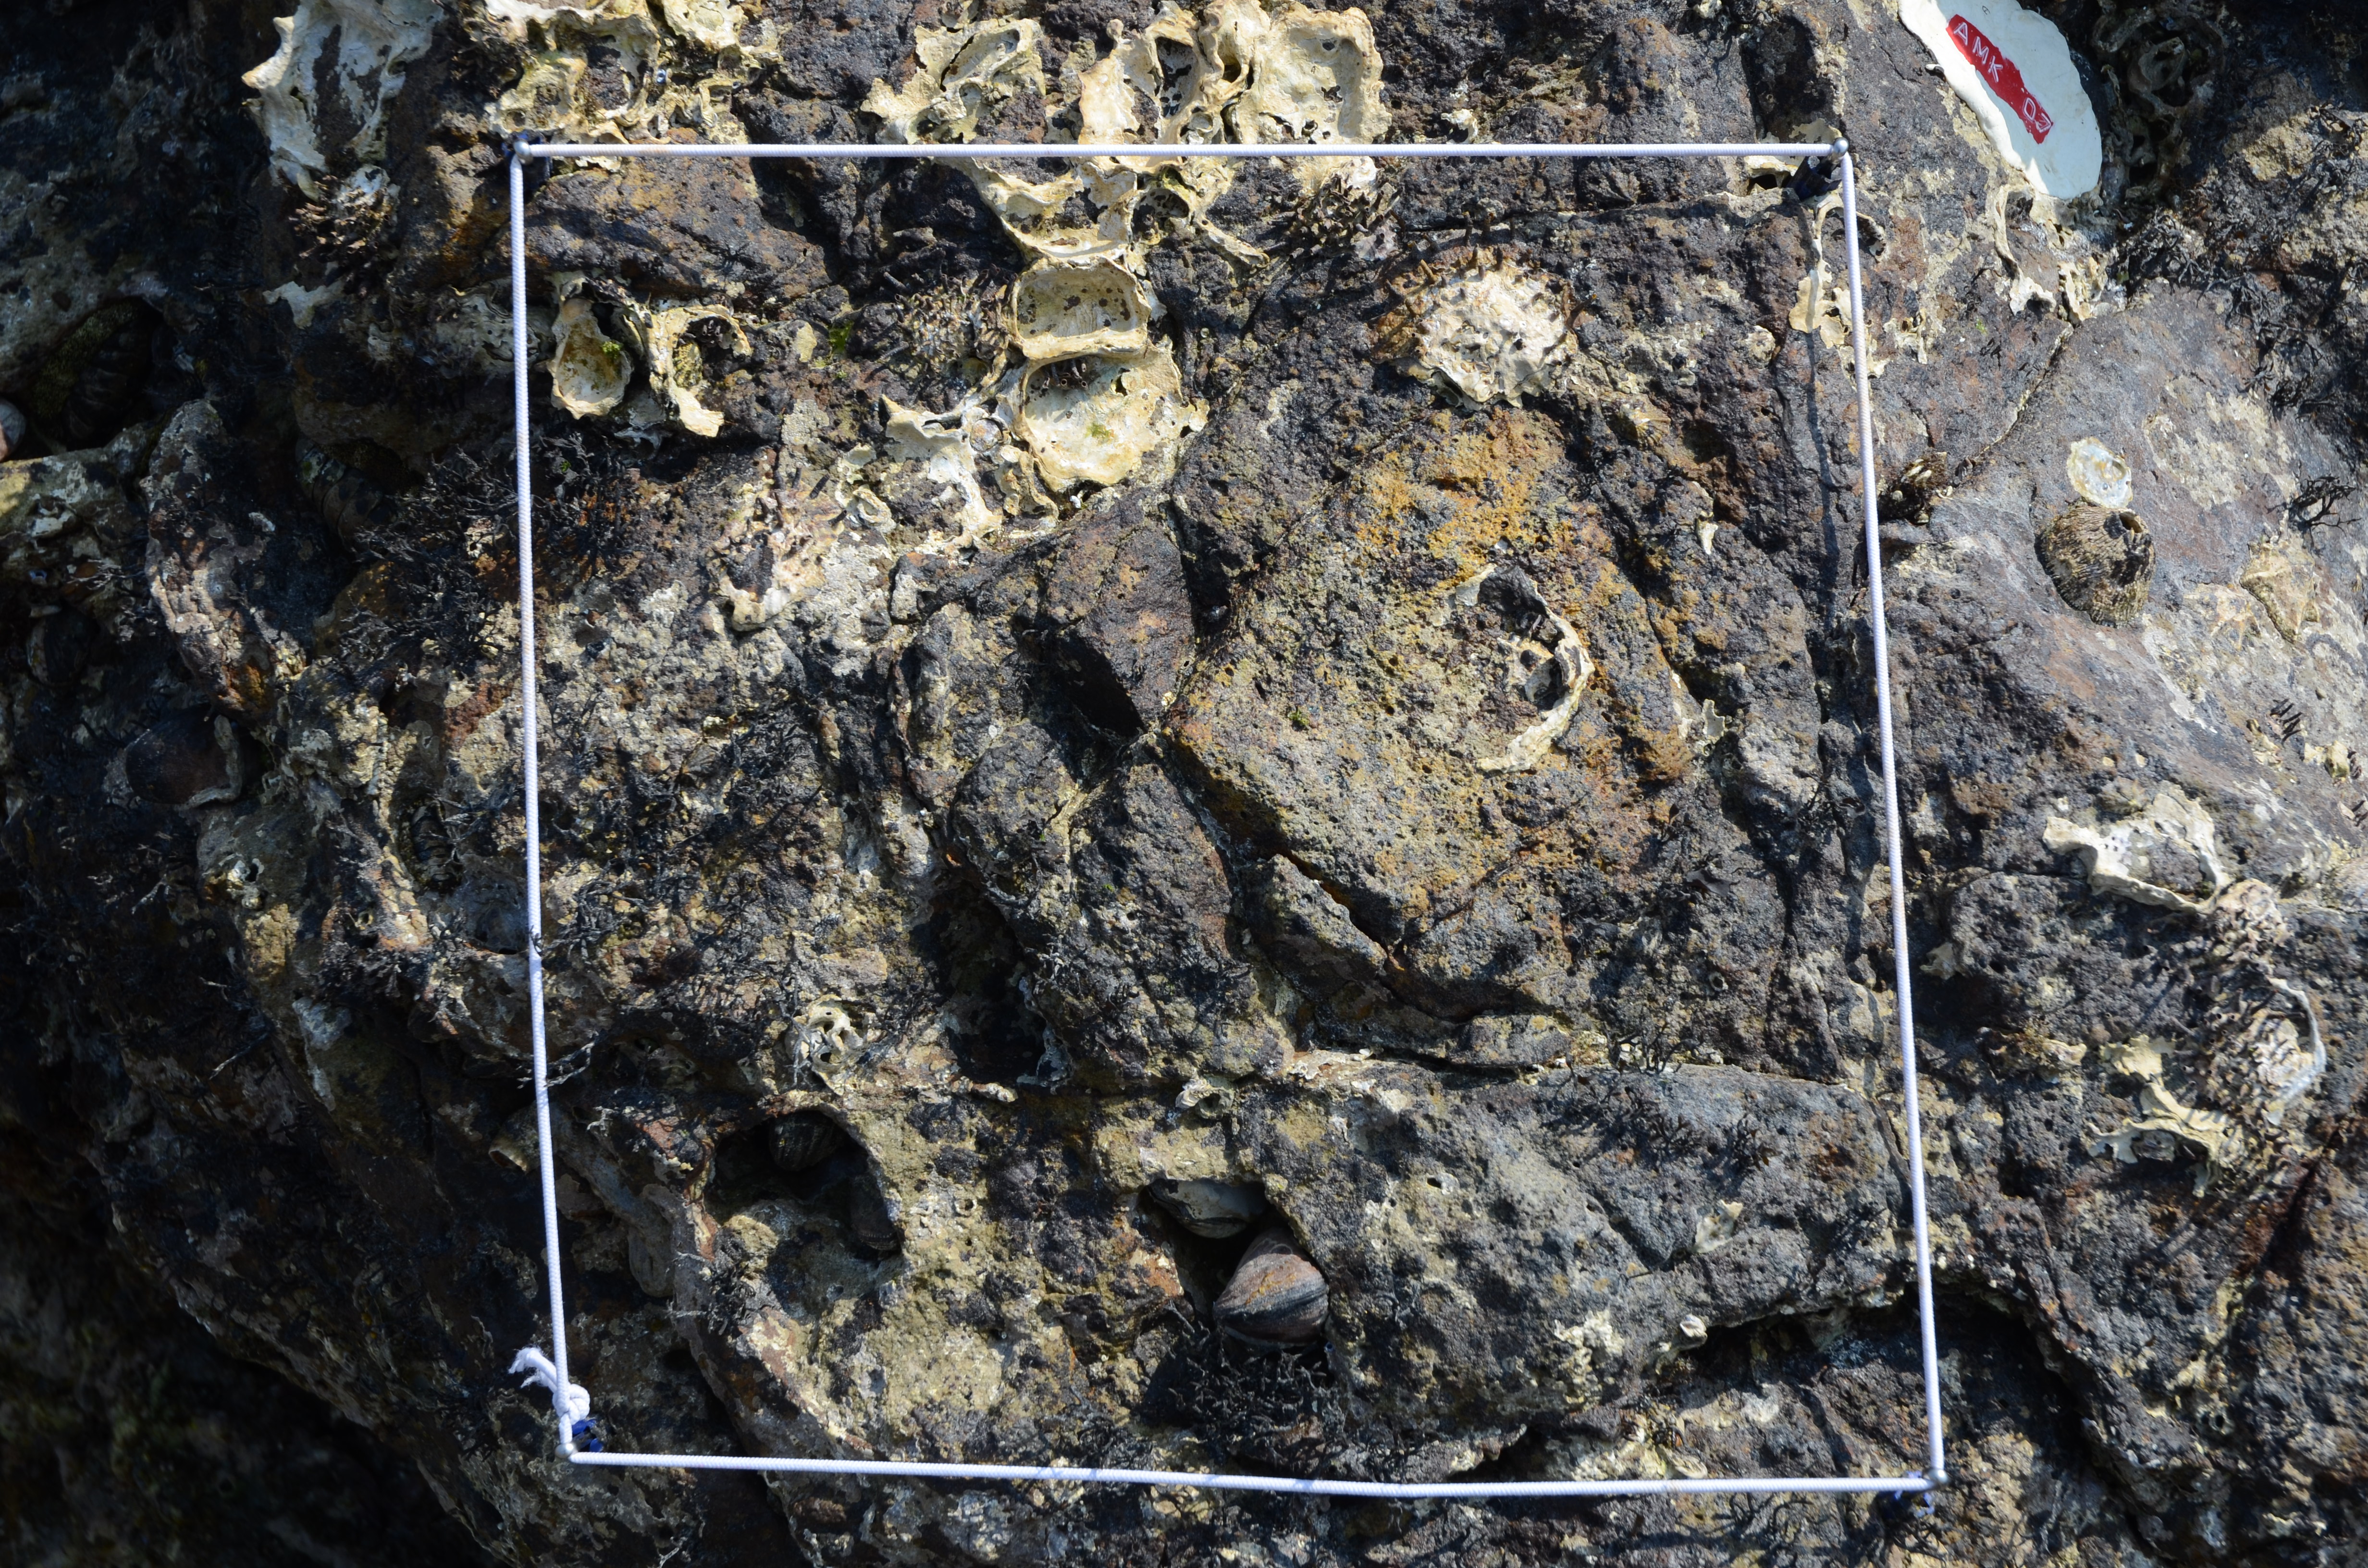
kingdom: Chromista
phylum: Ochrophyta
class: Phaeophyceae
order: Ishigeales
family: Ishigeaceae
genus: Ishige
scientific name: Ishige okamurae
